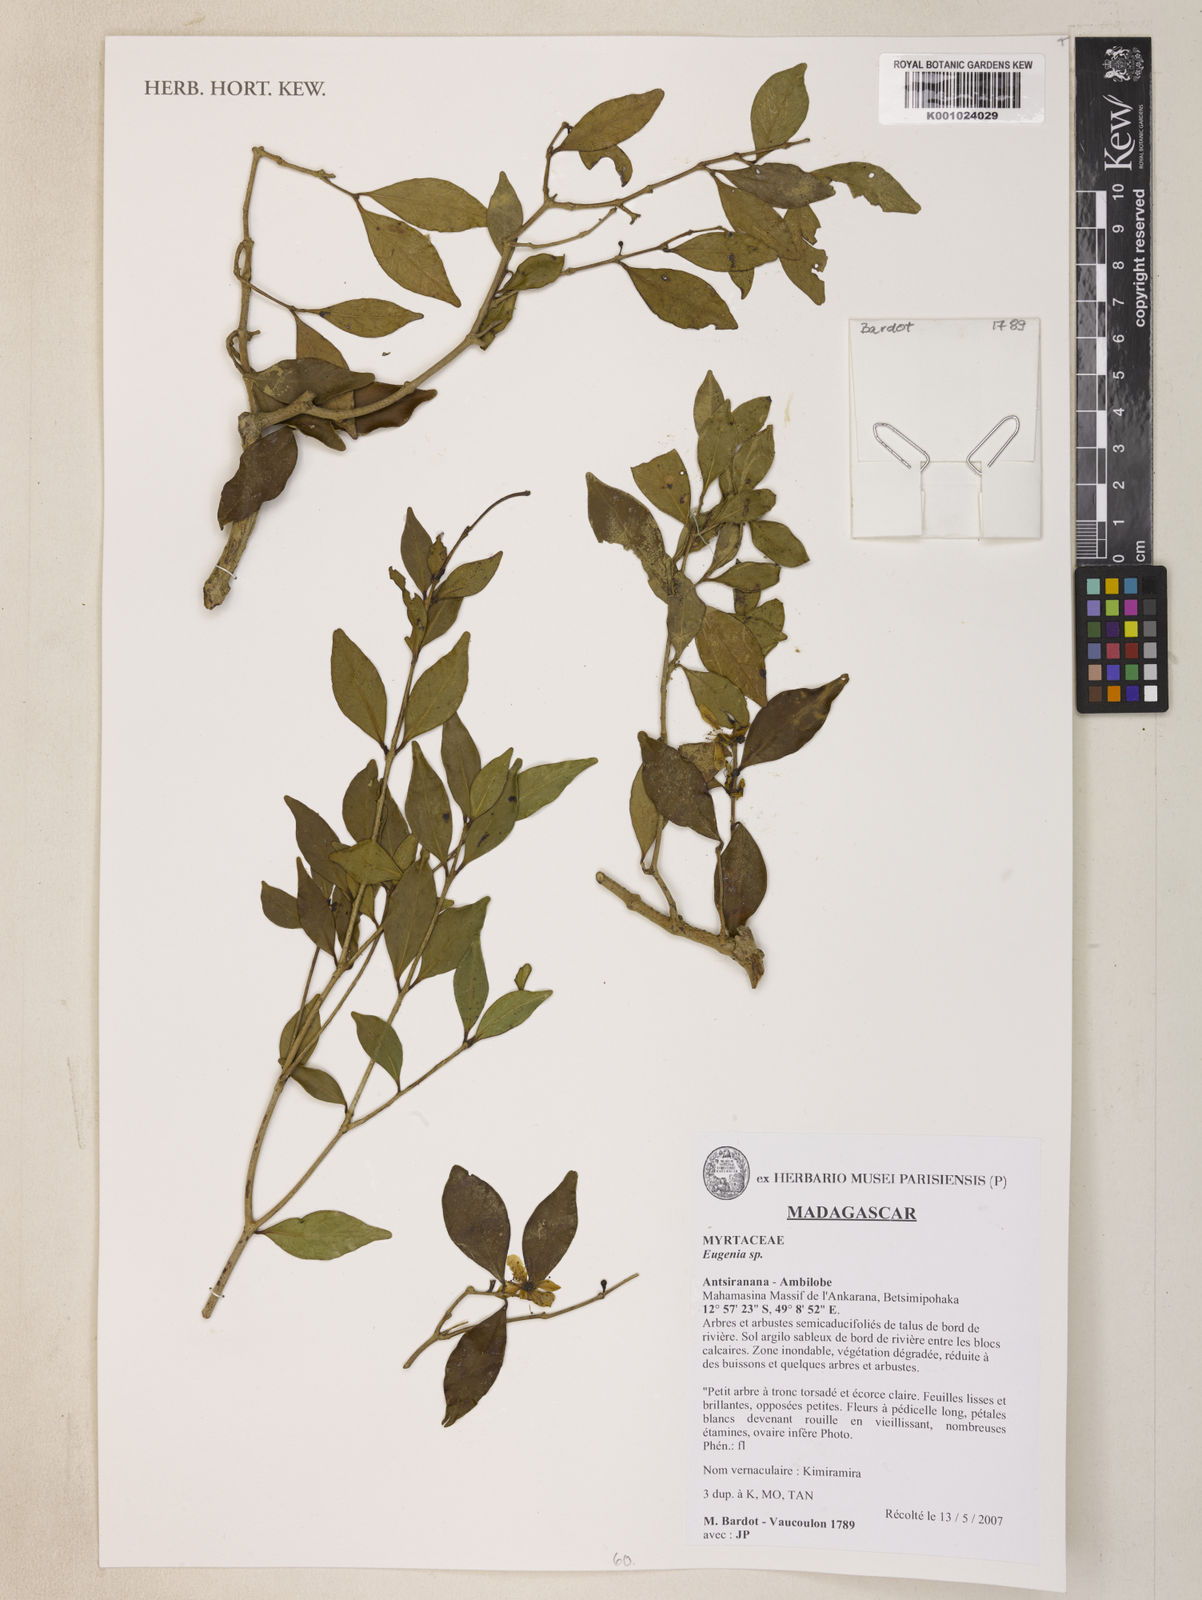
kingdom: Plantae
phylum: Tracheophyta
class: Magnoliopsida
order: Myrtales
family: Myrtaceae
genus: Eugenia
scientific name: Eugenia
